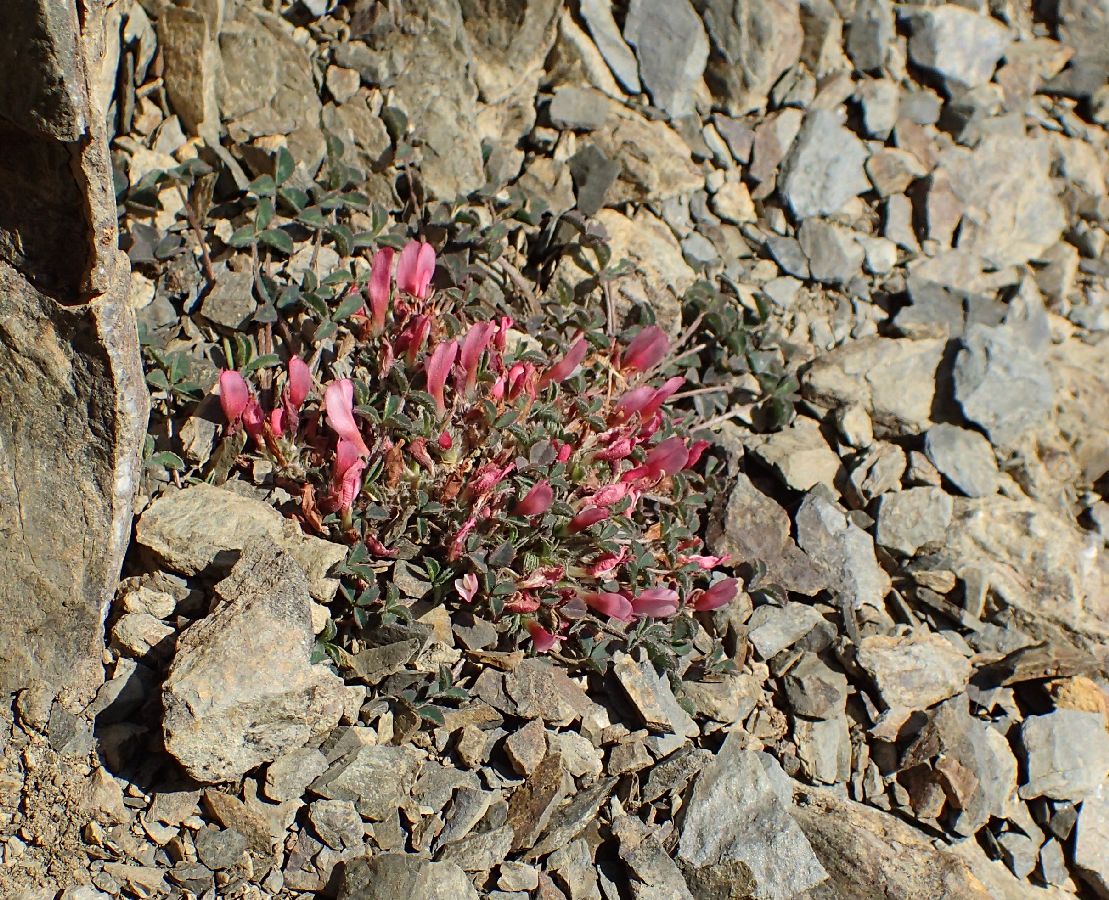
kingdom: Plantae
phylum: Tracheophyta
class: Magnoliopsida
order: Fabales
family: Fabaceae
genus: Trifolium
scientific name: Trifolium uniflorum
